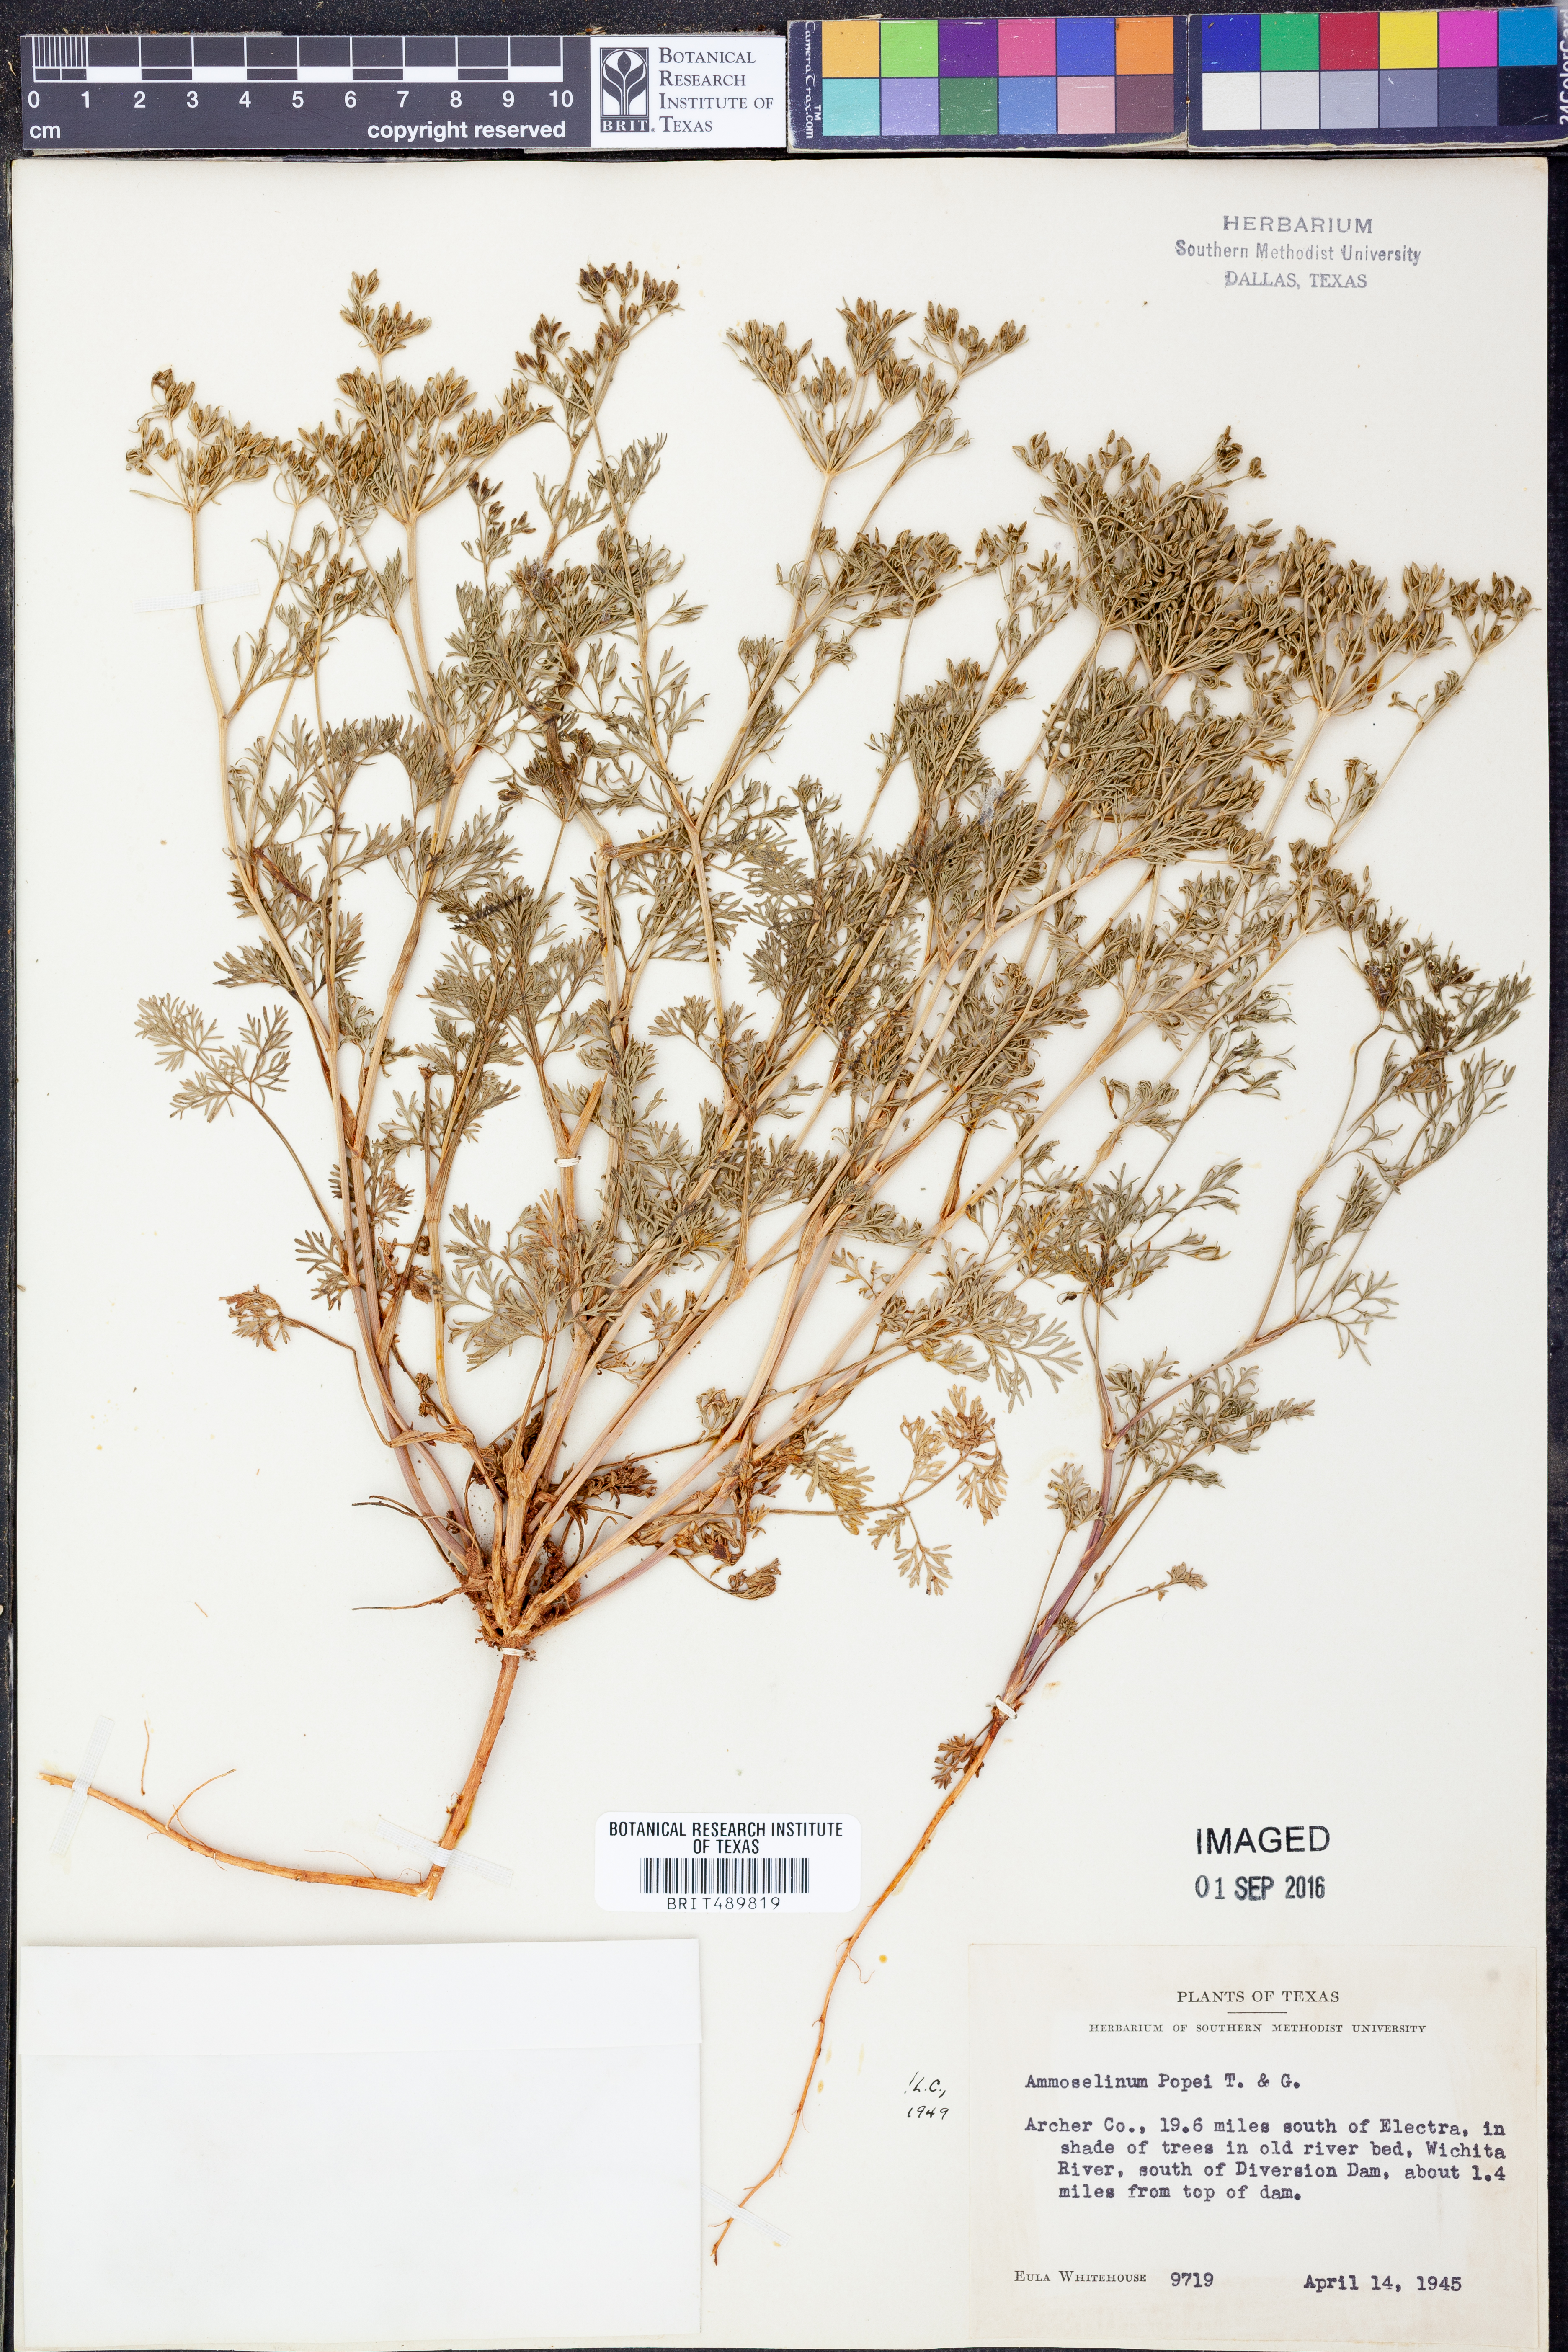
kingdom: Plantae
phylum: Tracheophyta
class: Magnoliopsida
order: Apiales
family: Apiaceae
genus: Ammoselinum
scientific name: Ammoselinum popei
